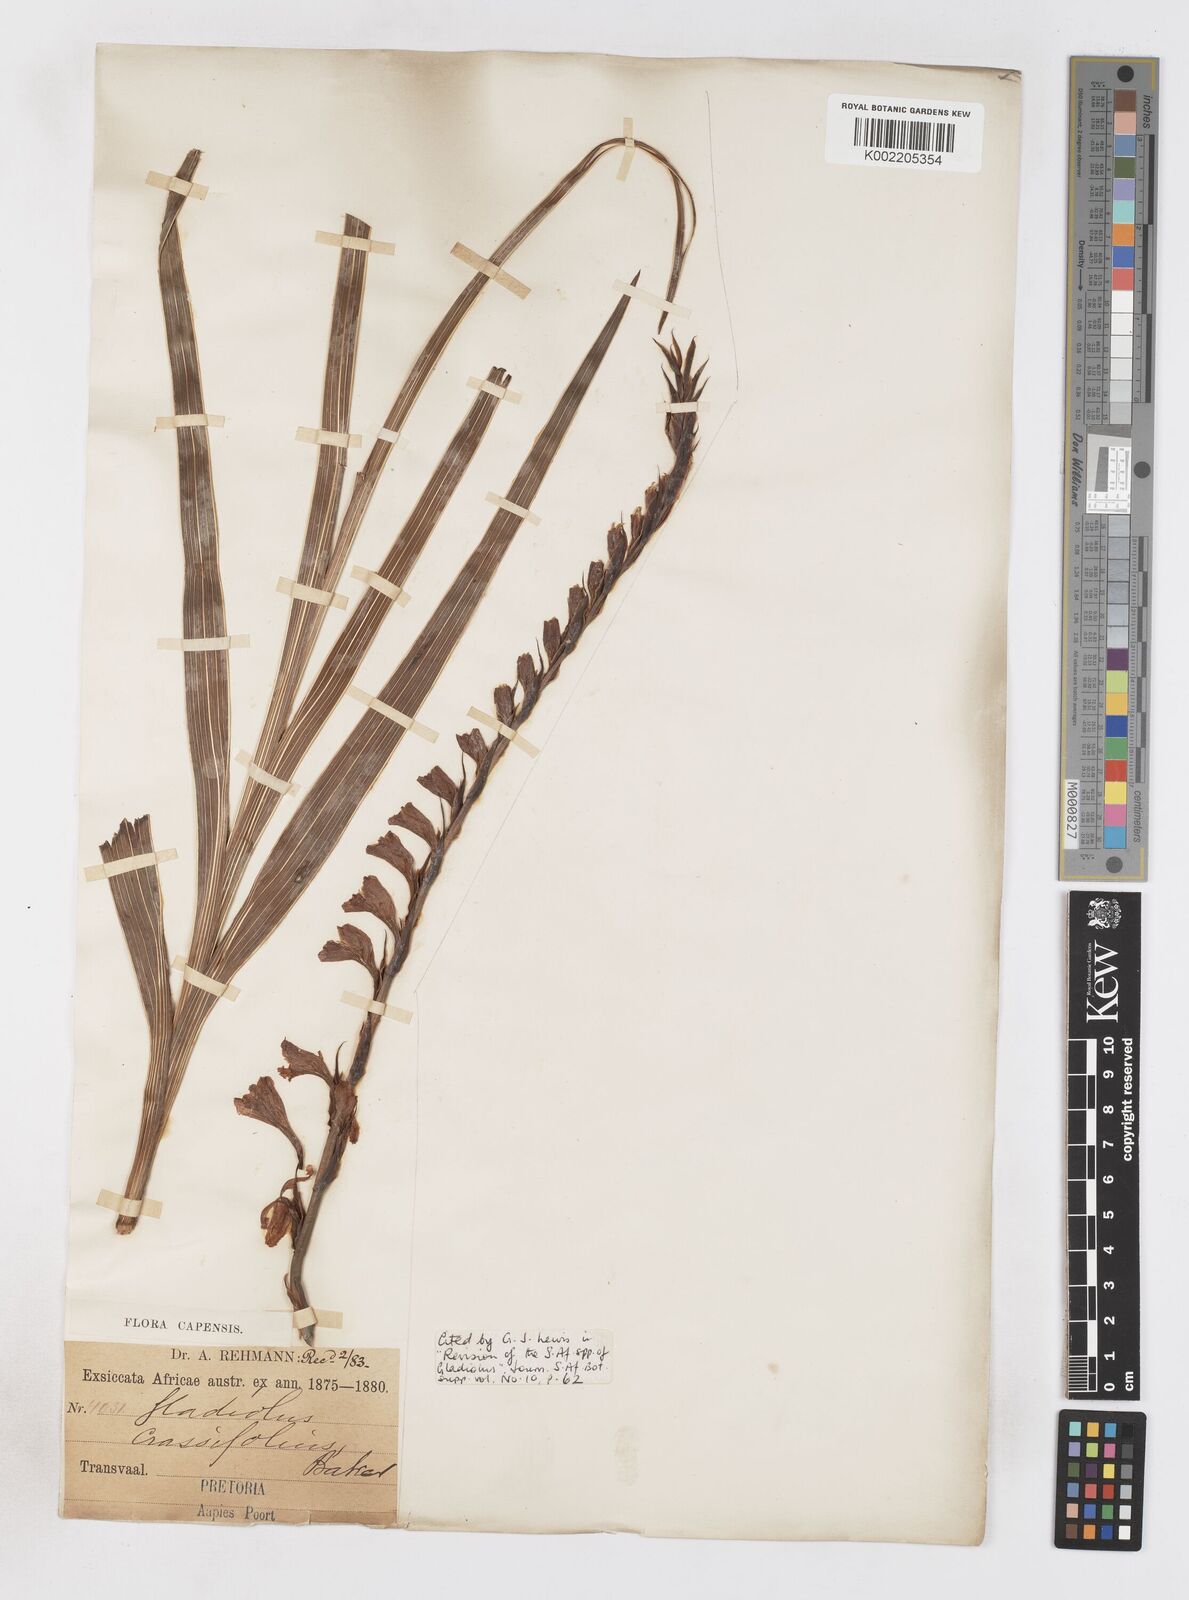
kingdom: Plantae
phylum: Tracheophyta
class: Liliopsida
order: Asparagales
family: Iridaceae
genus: Gladiolus
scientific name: Gladiolus crassifolius
